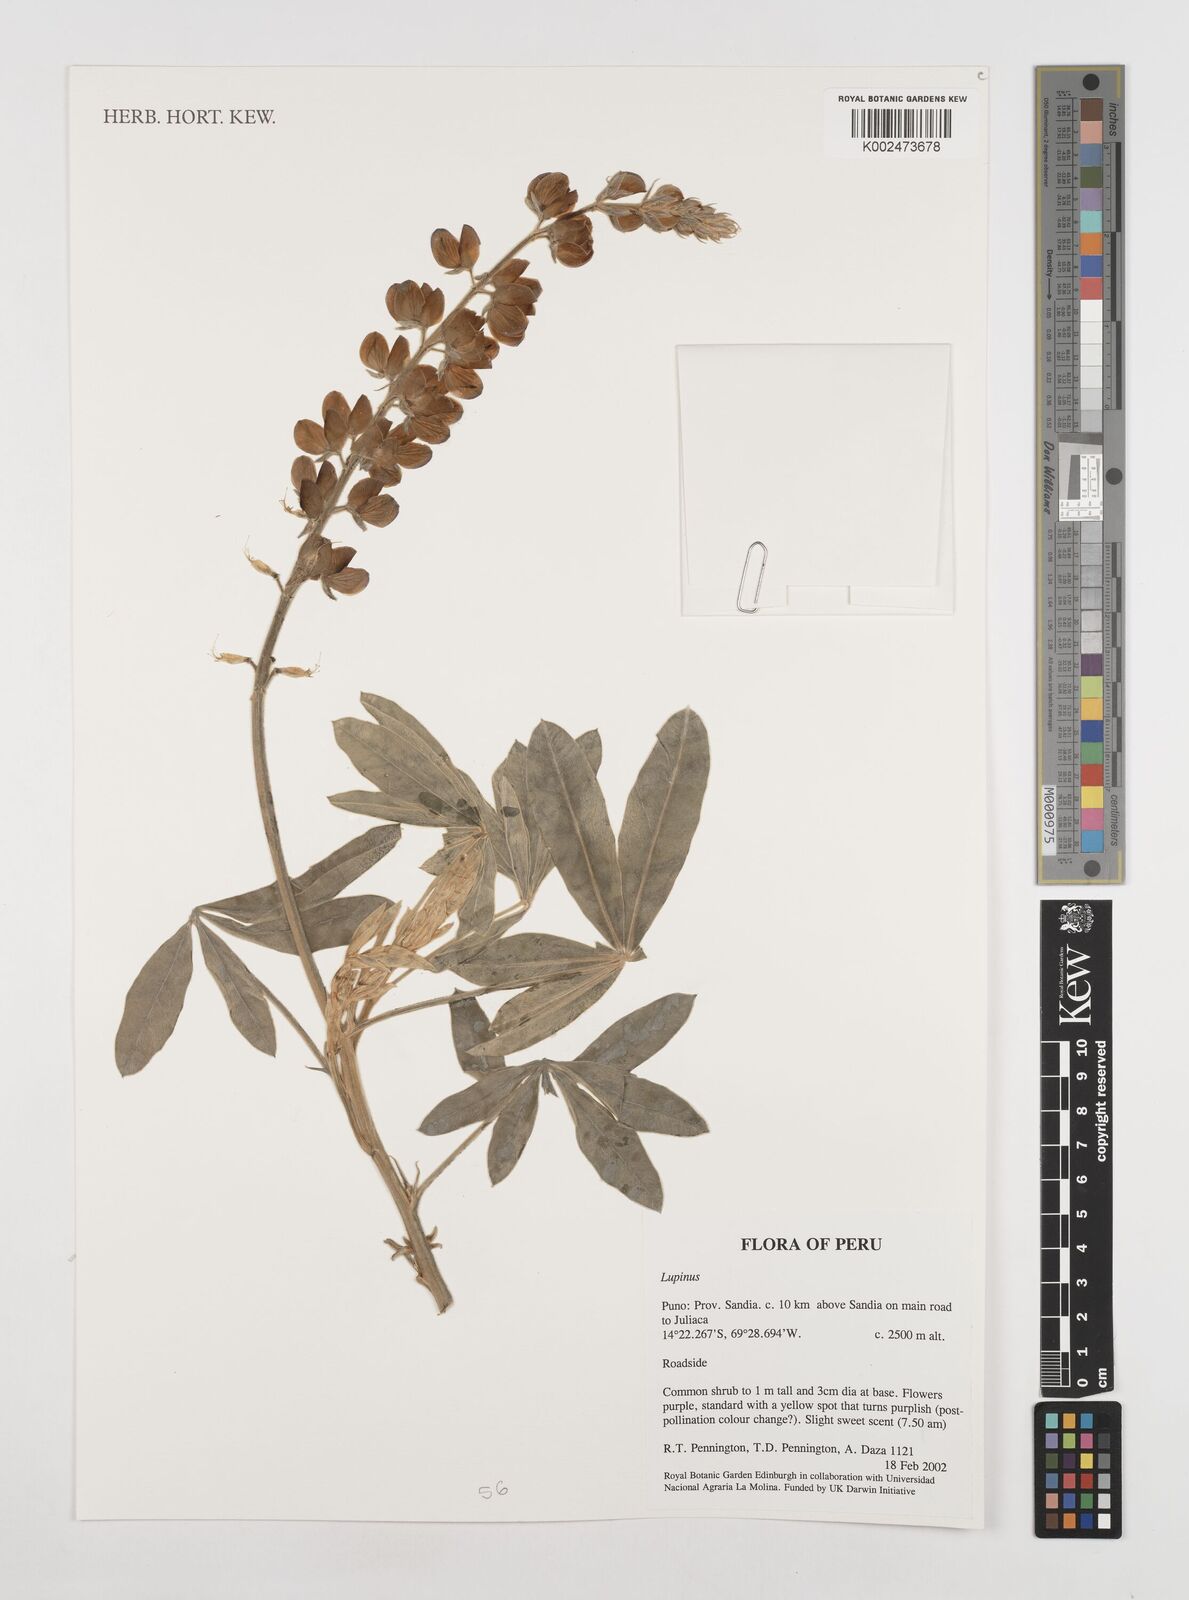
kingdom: Plantae
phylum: Tracheophyta
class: Magnoliopsida
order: Fabales
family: Fabaceae
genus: Lupinus
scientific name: Lupinus
